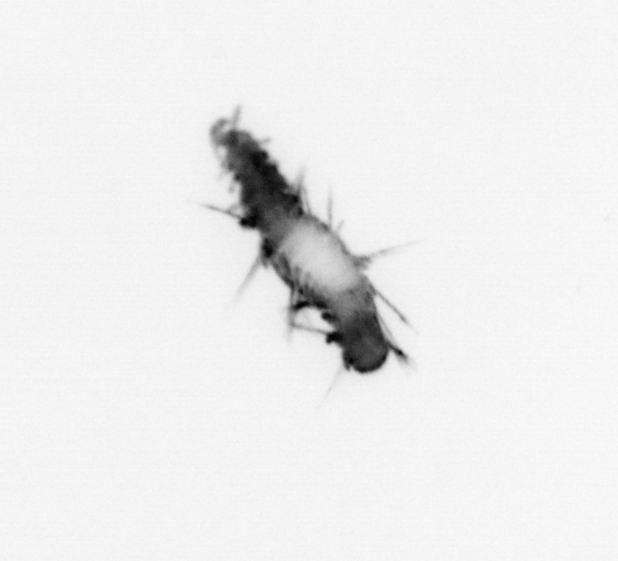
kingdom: Animalia
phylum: Annelida
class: Polychaeta
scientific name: Polychaeta
